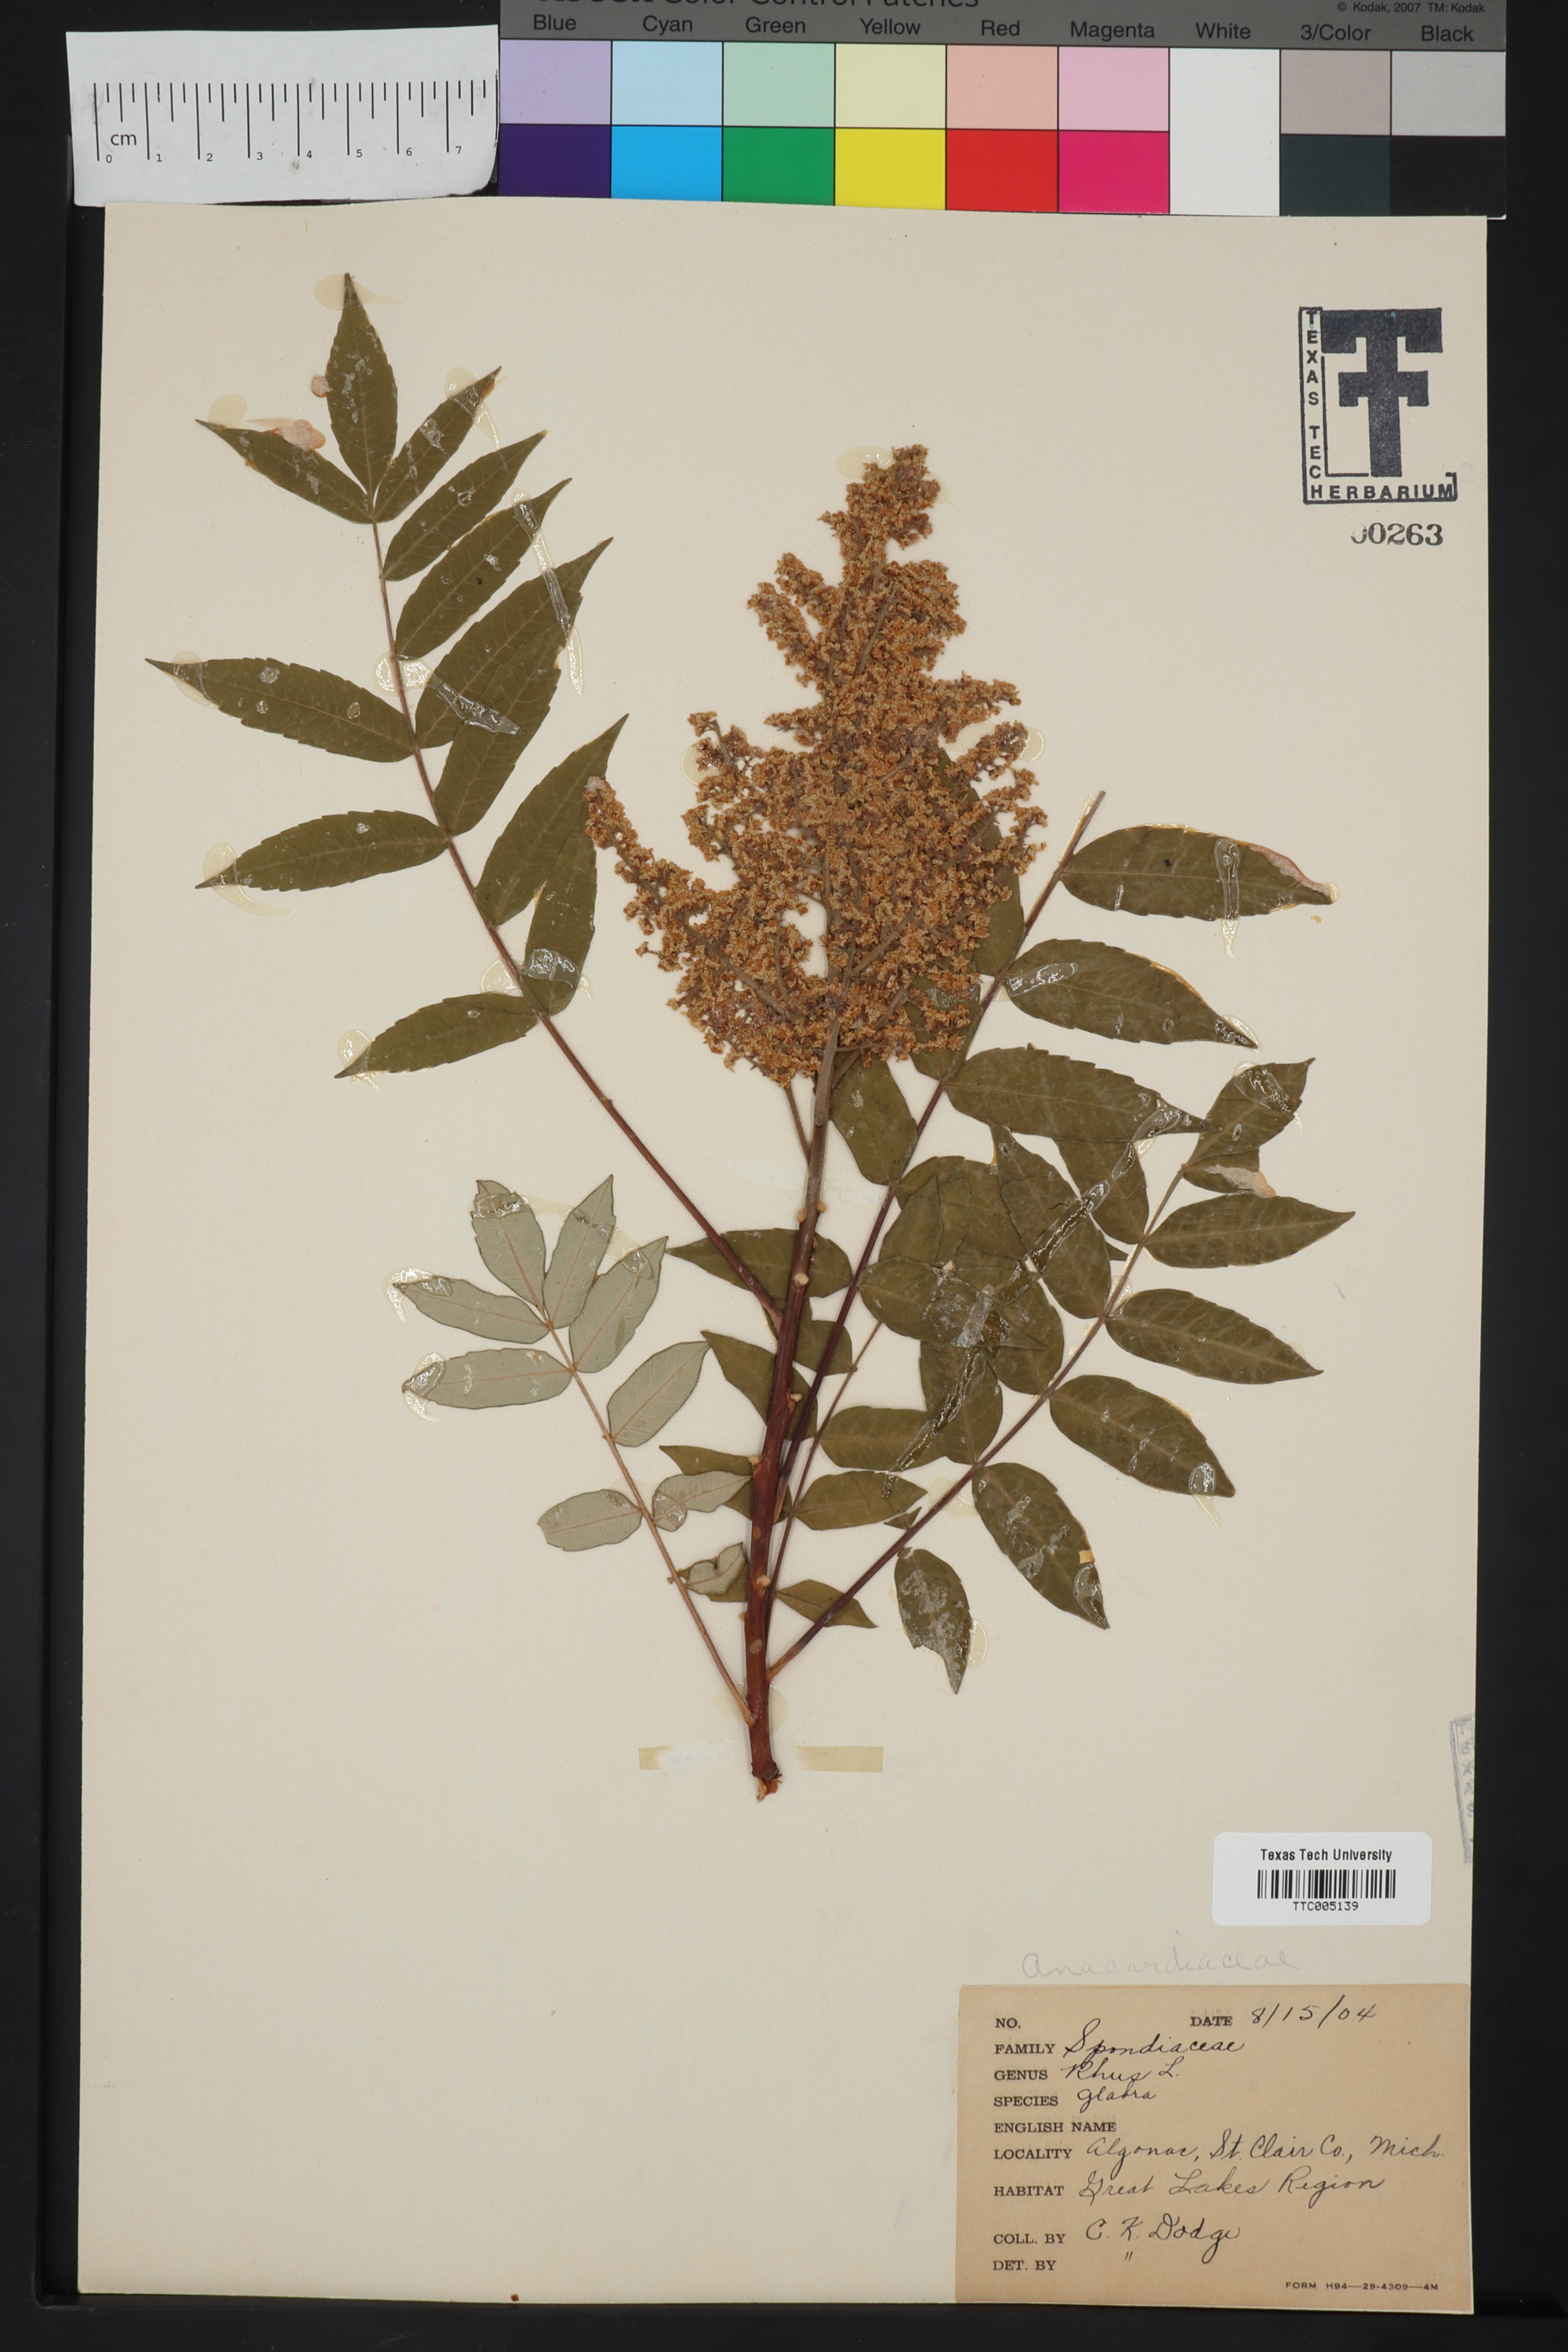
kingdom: Plantae
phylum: Tracheophyta
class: Magnoliopsida
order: Sapindales
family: Anacardiaceae
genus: Rhus
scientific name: Rhus glabra
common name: Scarlet sumac
